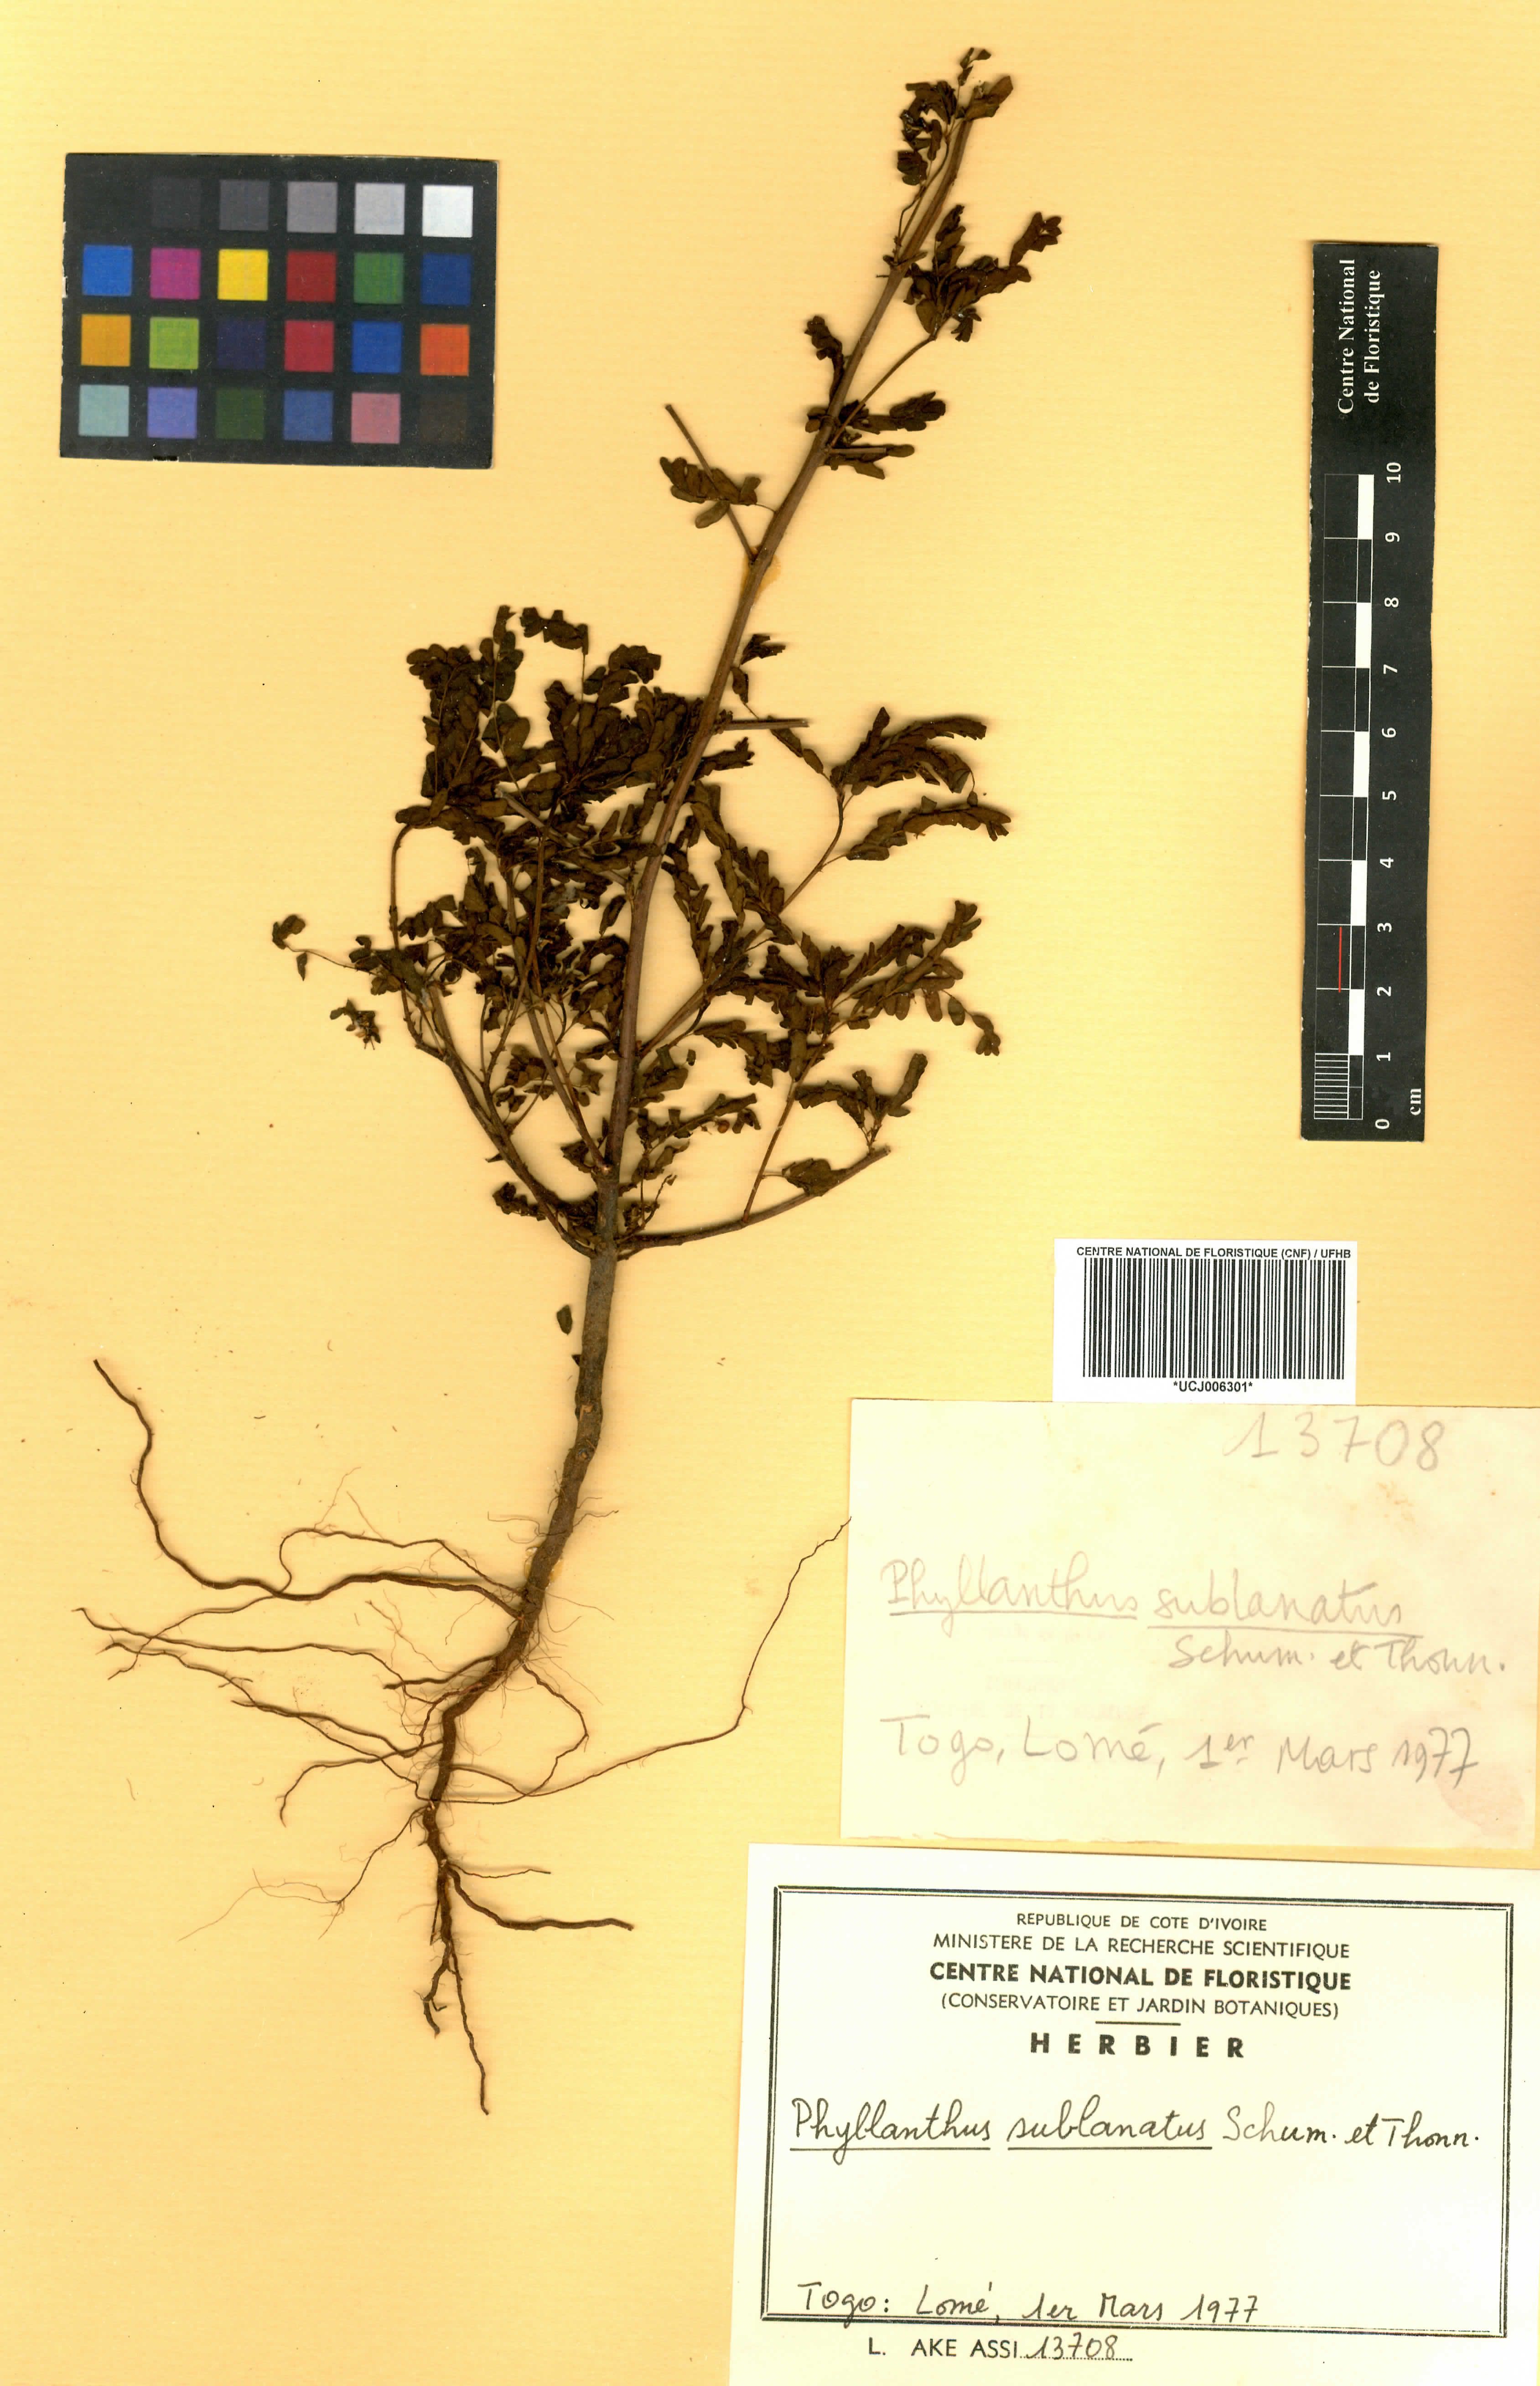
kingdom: Plantae
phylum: Tracheophyta
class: Magnoliopsida
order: Malpighiales
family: Phyllanthaceae
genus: Phyllanthus
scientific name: Phyllanthus sublanatus
